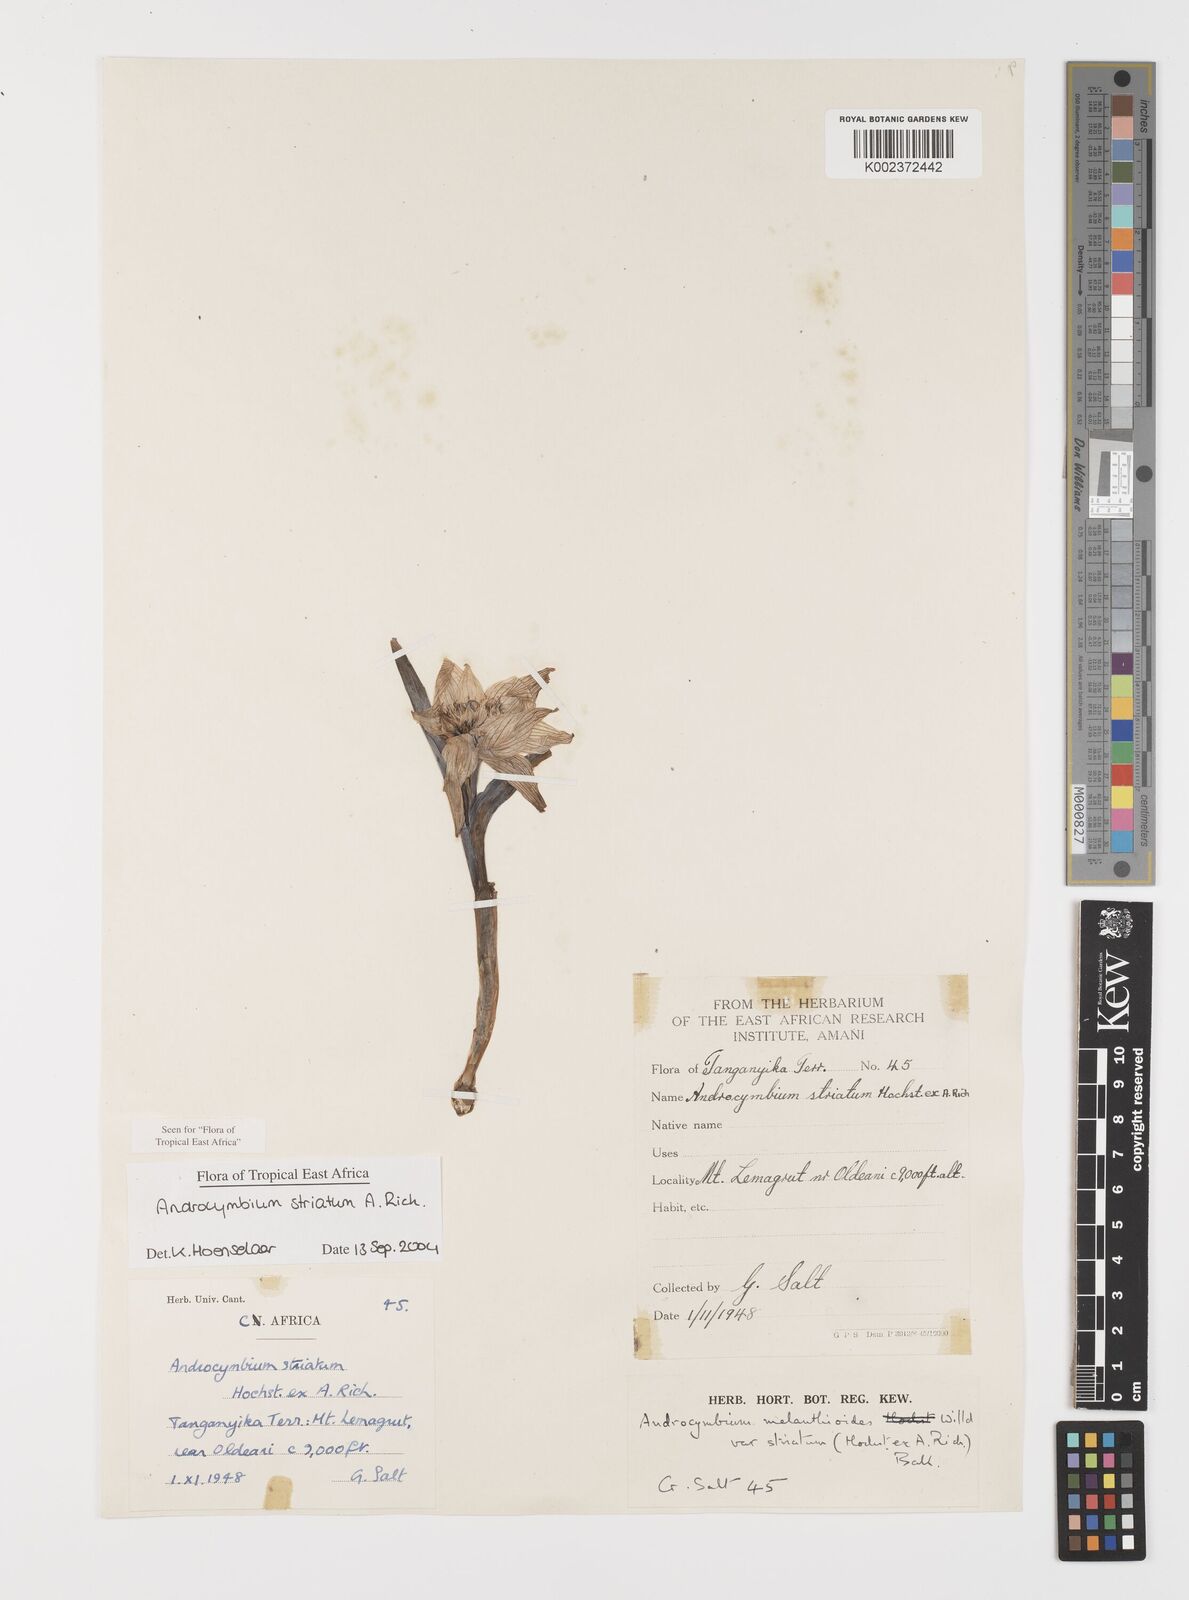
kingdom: Plantae
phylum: Tracheophyta
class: Liliopsida
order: Liliales
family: Colchicaceae
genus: Colchicum
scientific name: Colchicum striatum
